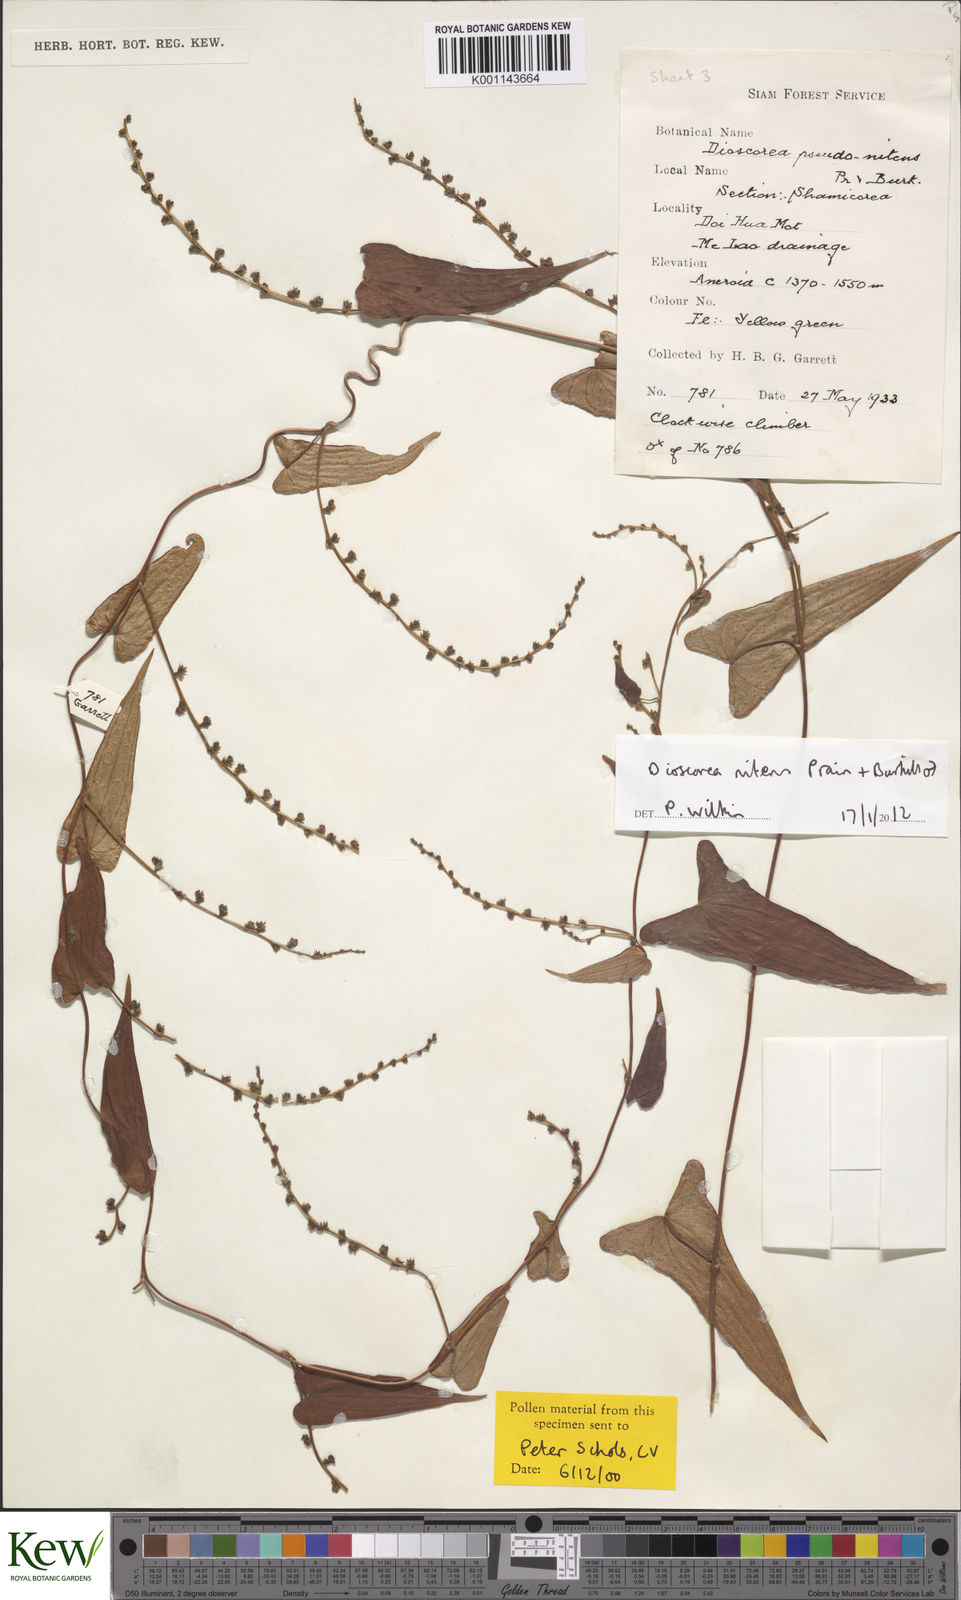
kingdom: Plantae
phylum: Tracheophyta
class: Liliopsida
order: Dioscoreales
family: Dioscoreaceae
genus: Dioscorea
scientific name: Dioscorea nitens
